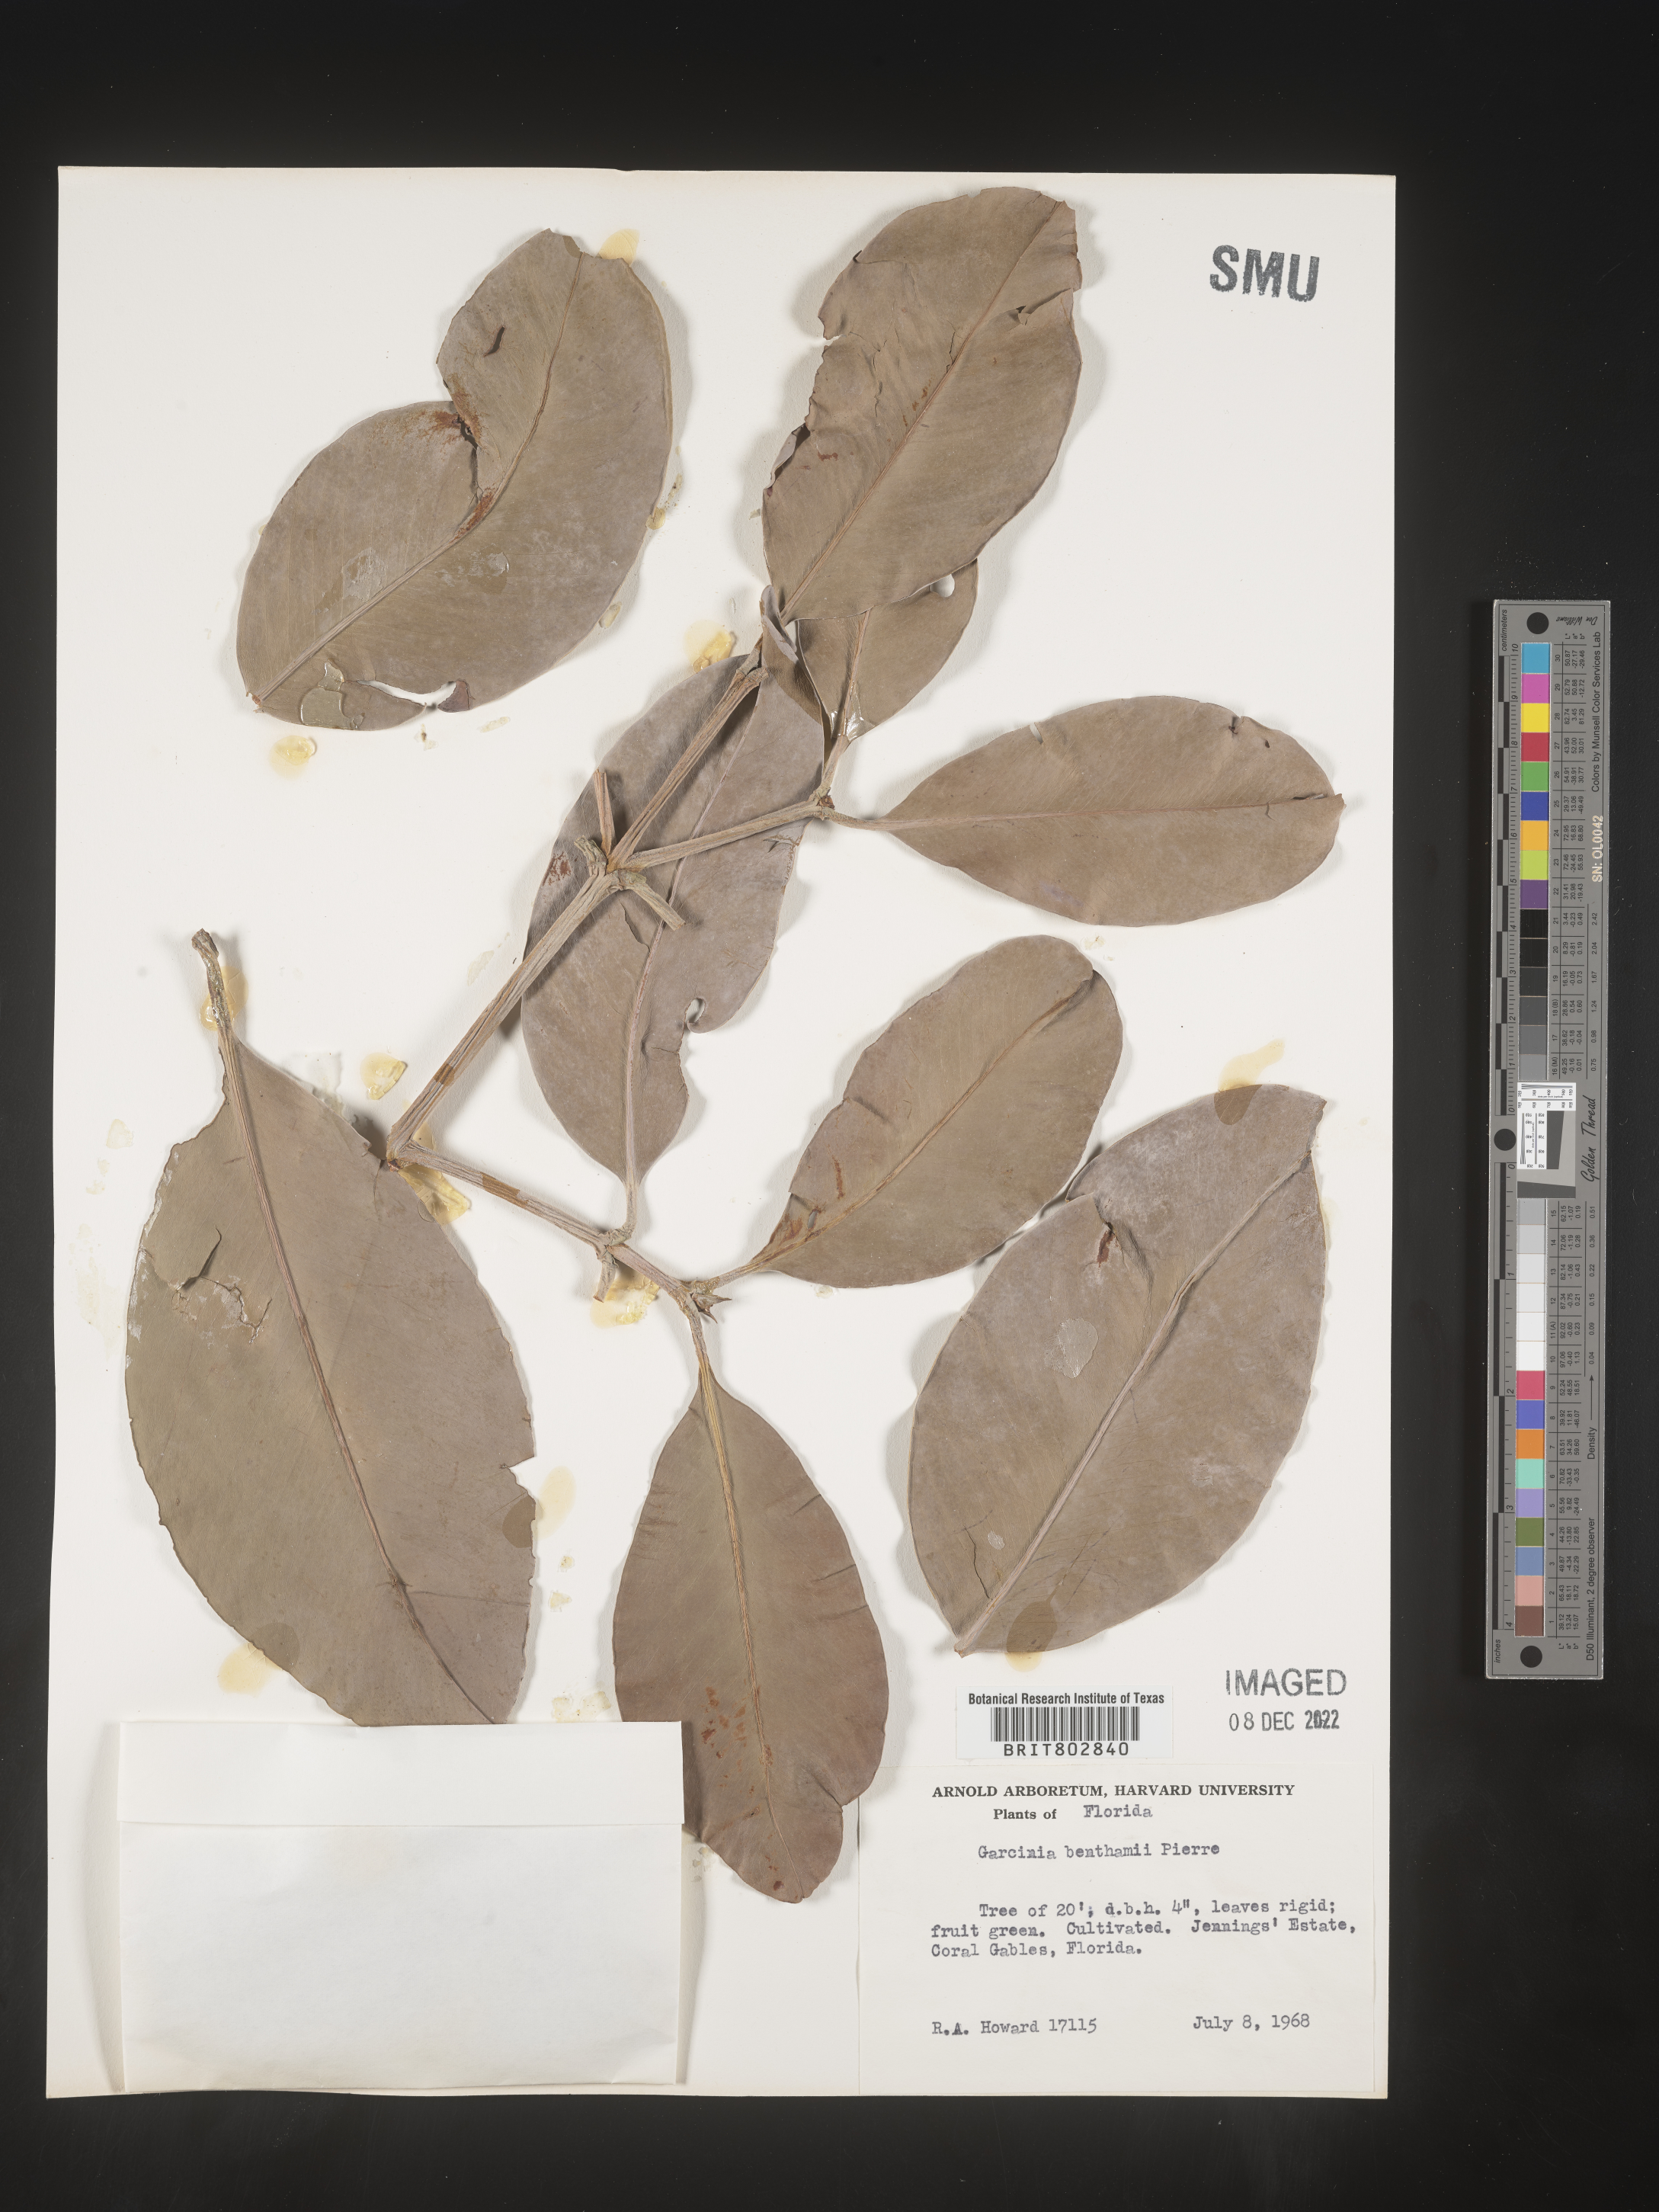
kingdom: Plantae
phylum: Tracheophyta
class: Magnoliopsida
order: Malpighiales
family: Clusiaceae
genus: Garcinia
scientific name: Garcinia
